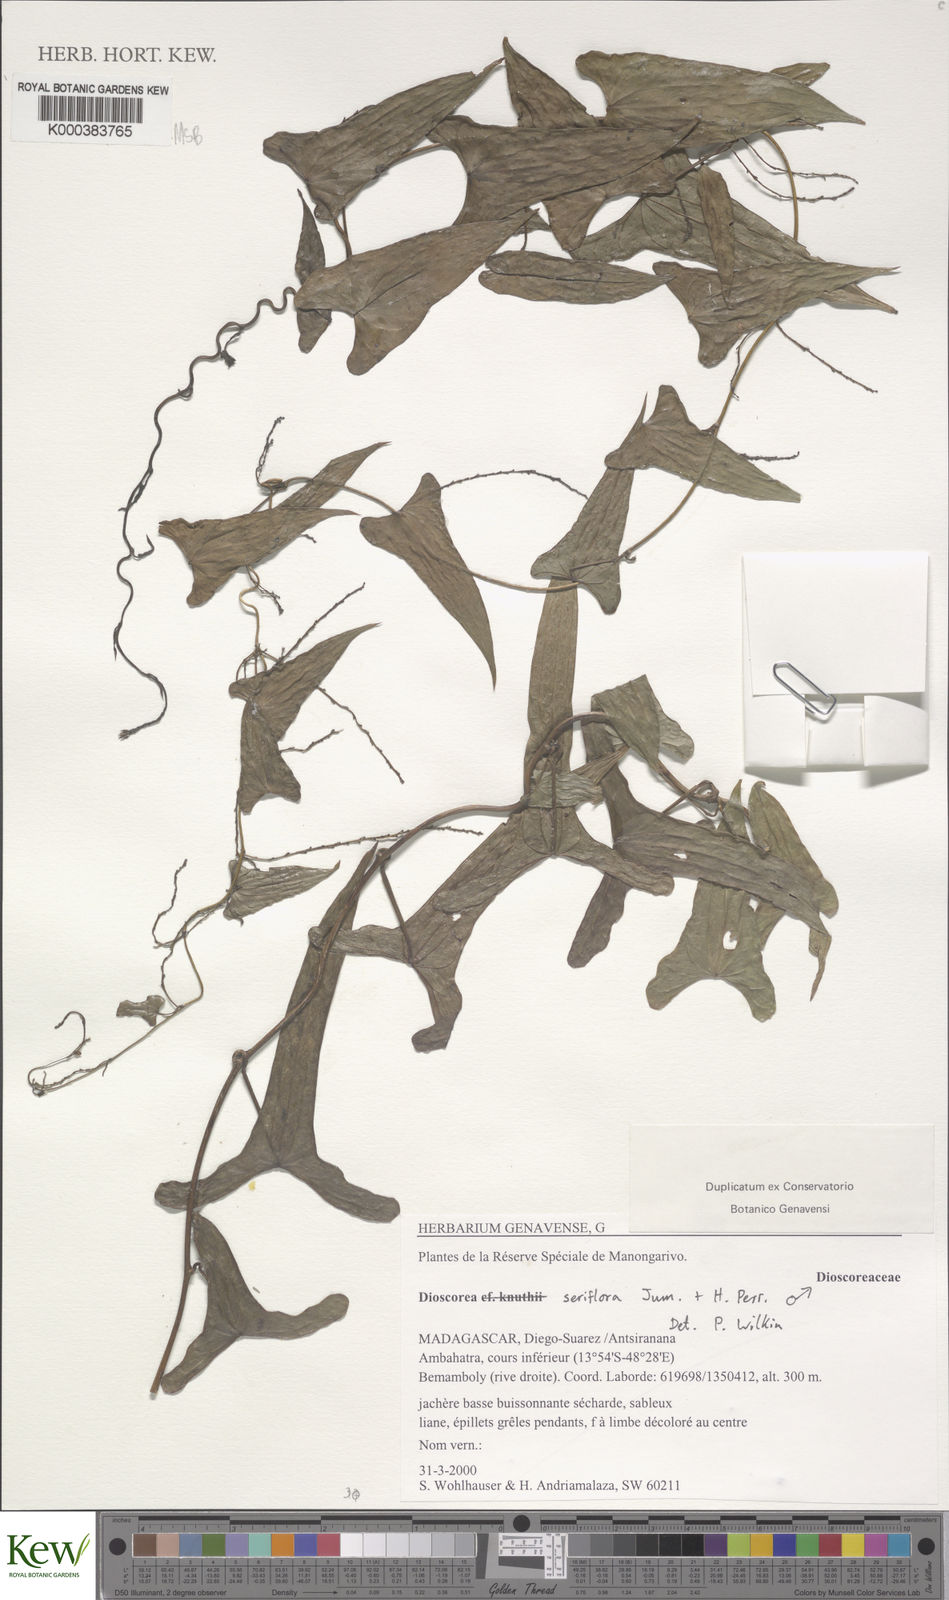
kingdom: Plantae
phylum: Tracheophyta
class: Liliopsida
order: Dioscoreales
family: Dioscoreaceae
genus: Dioscorea
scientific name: Dioscorea seriflora
